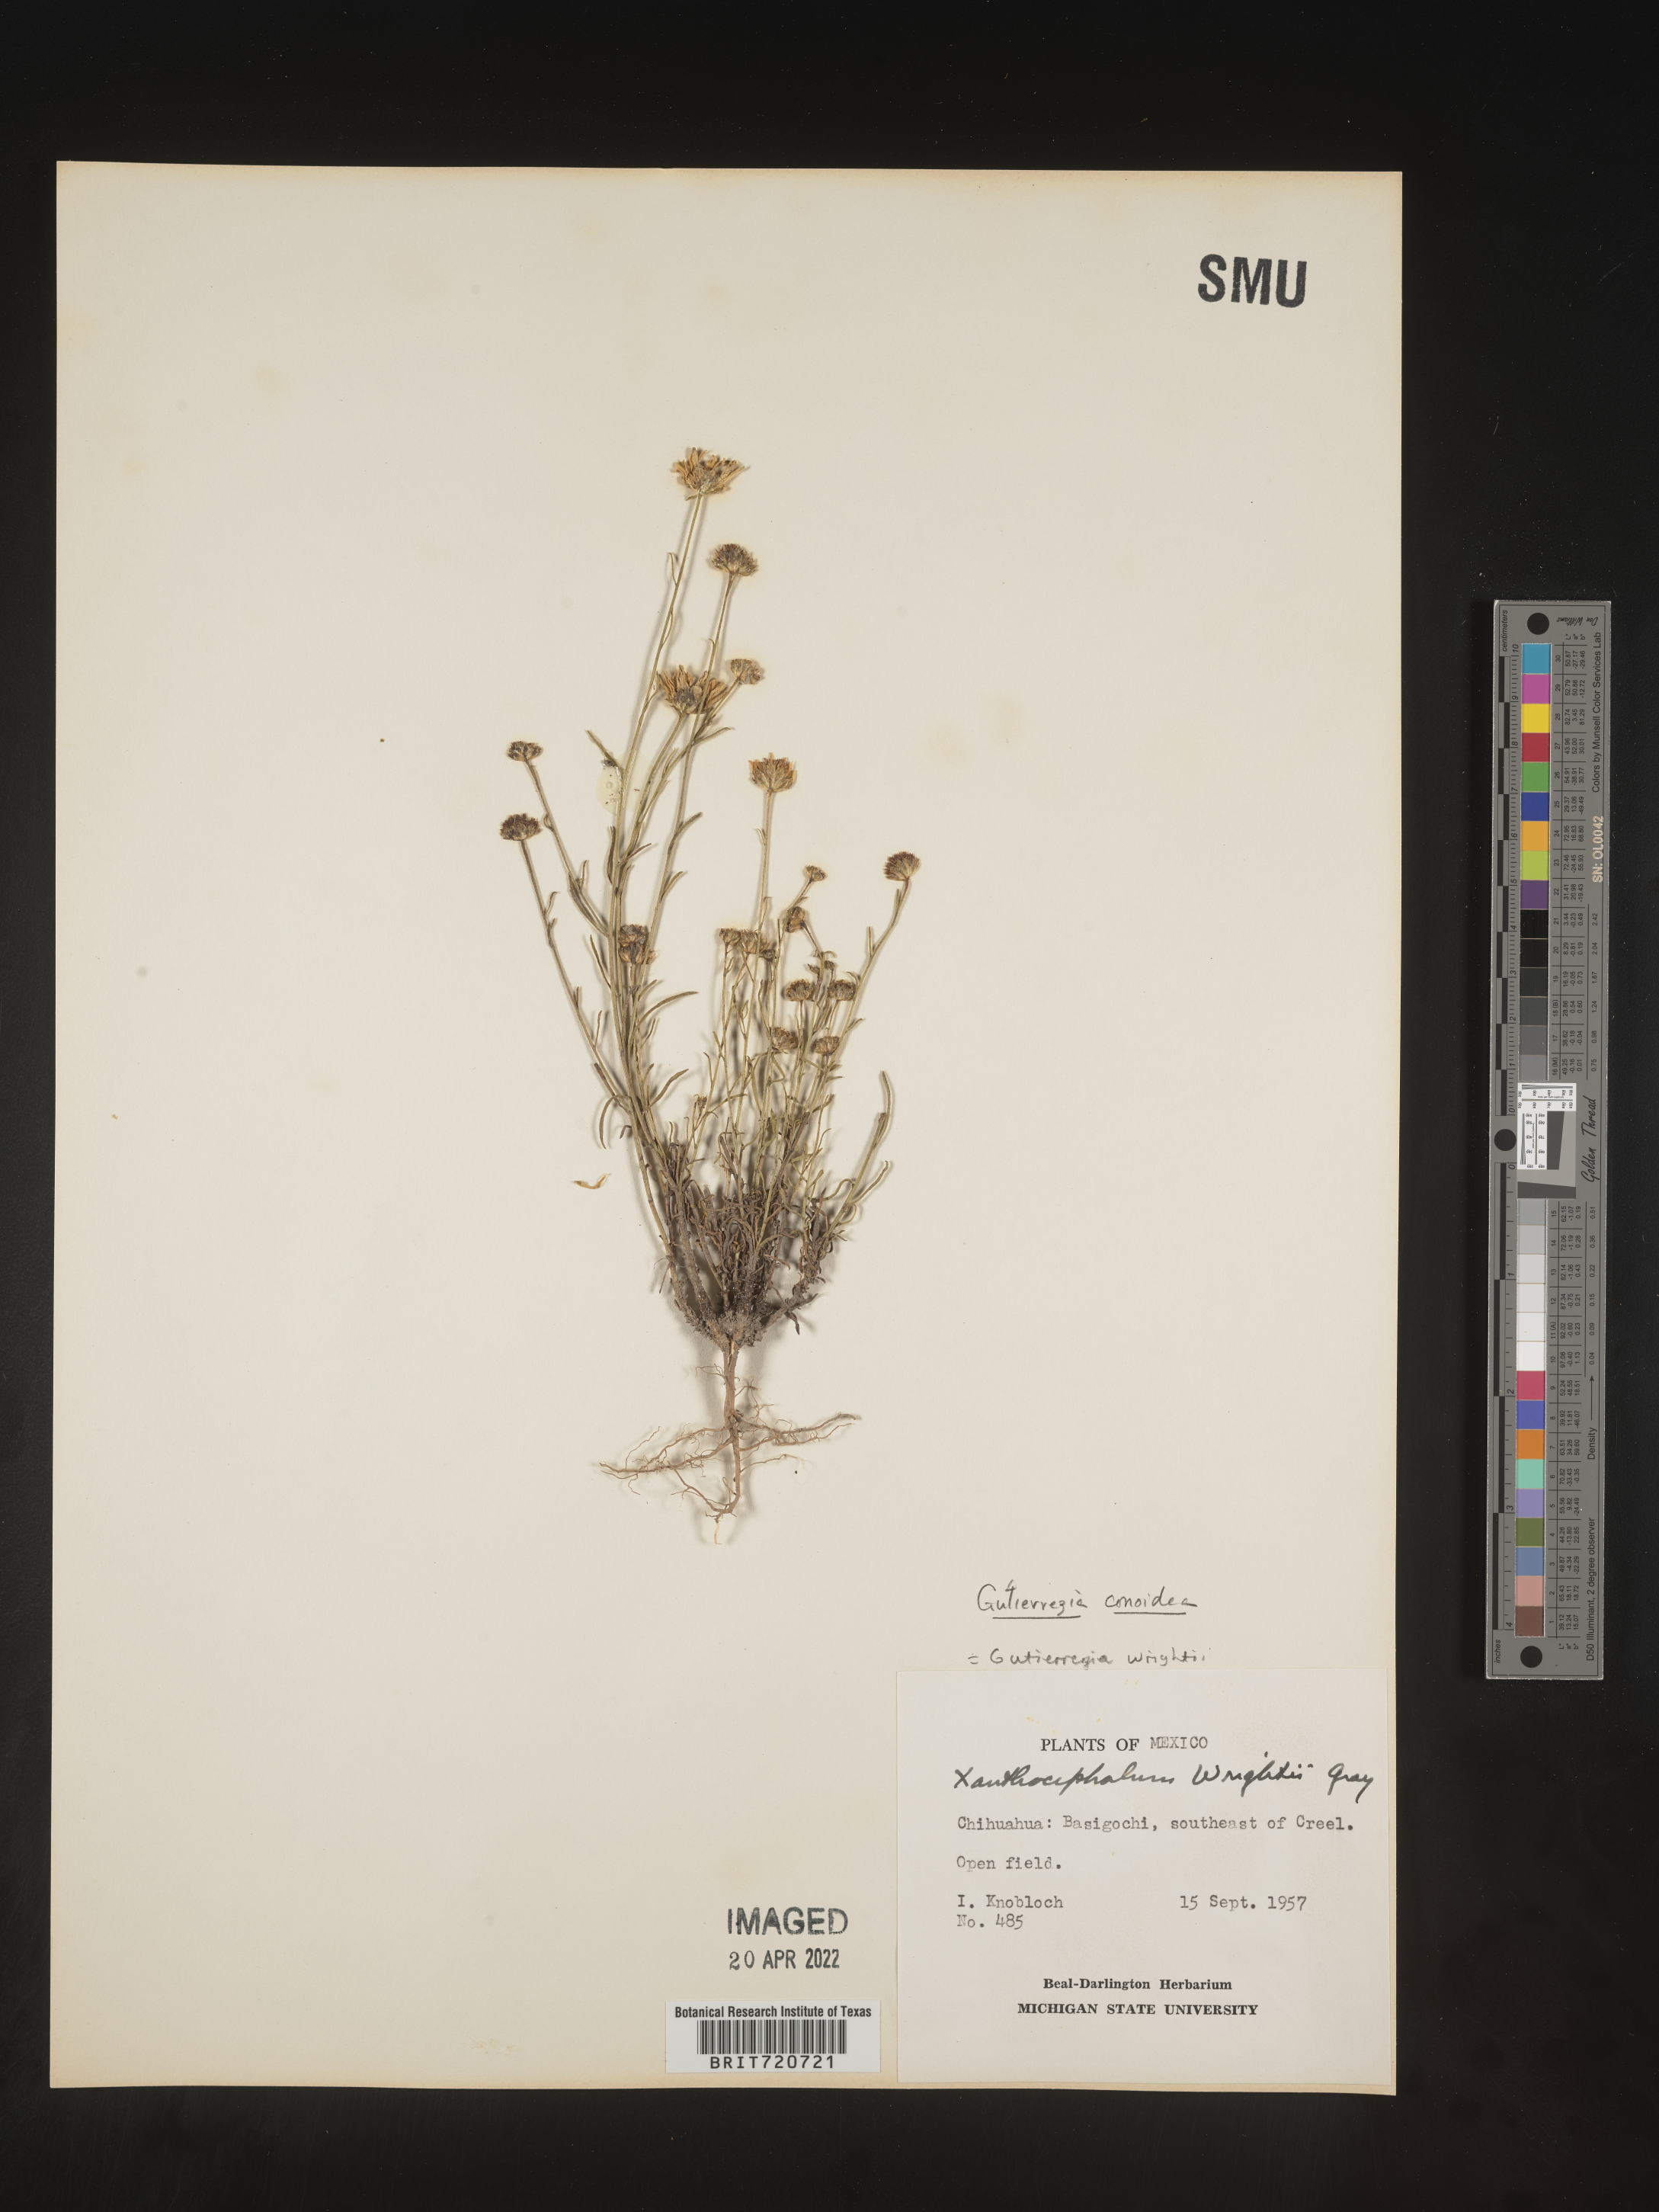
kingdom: Plantae
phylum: Tracheophyta
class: Magnoliopsida
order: Asterales
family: Asteraceae
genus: Gutierrezia
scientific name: Gutierrezia conoidea
